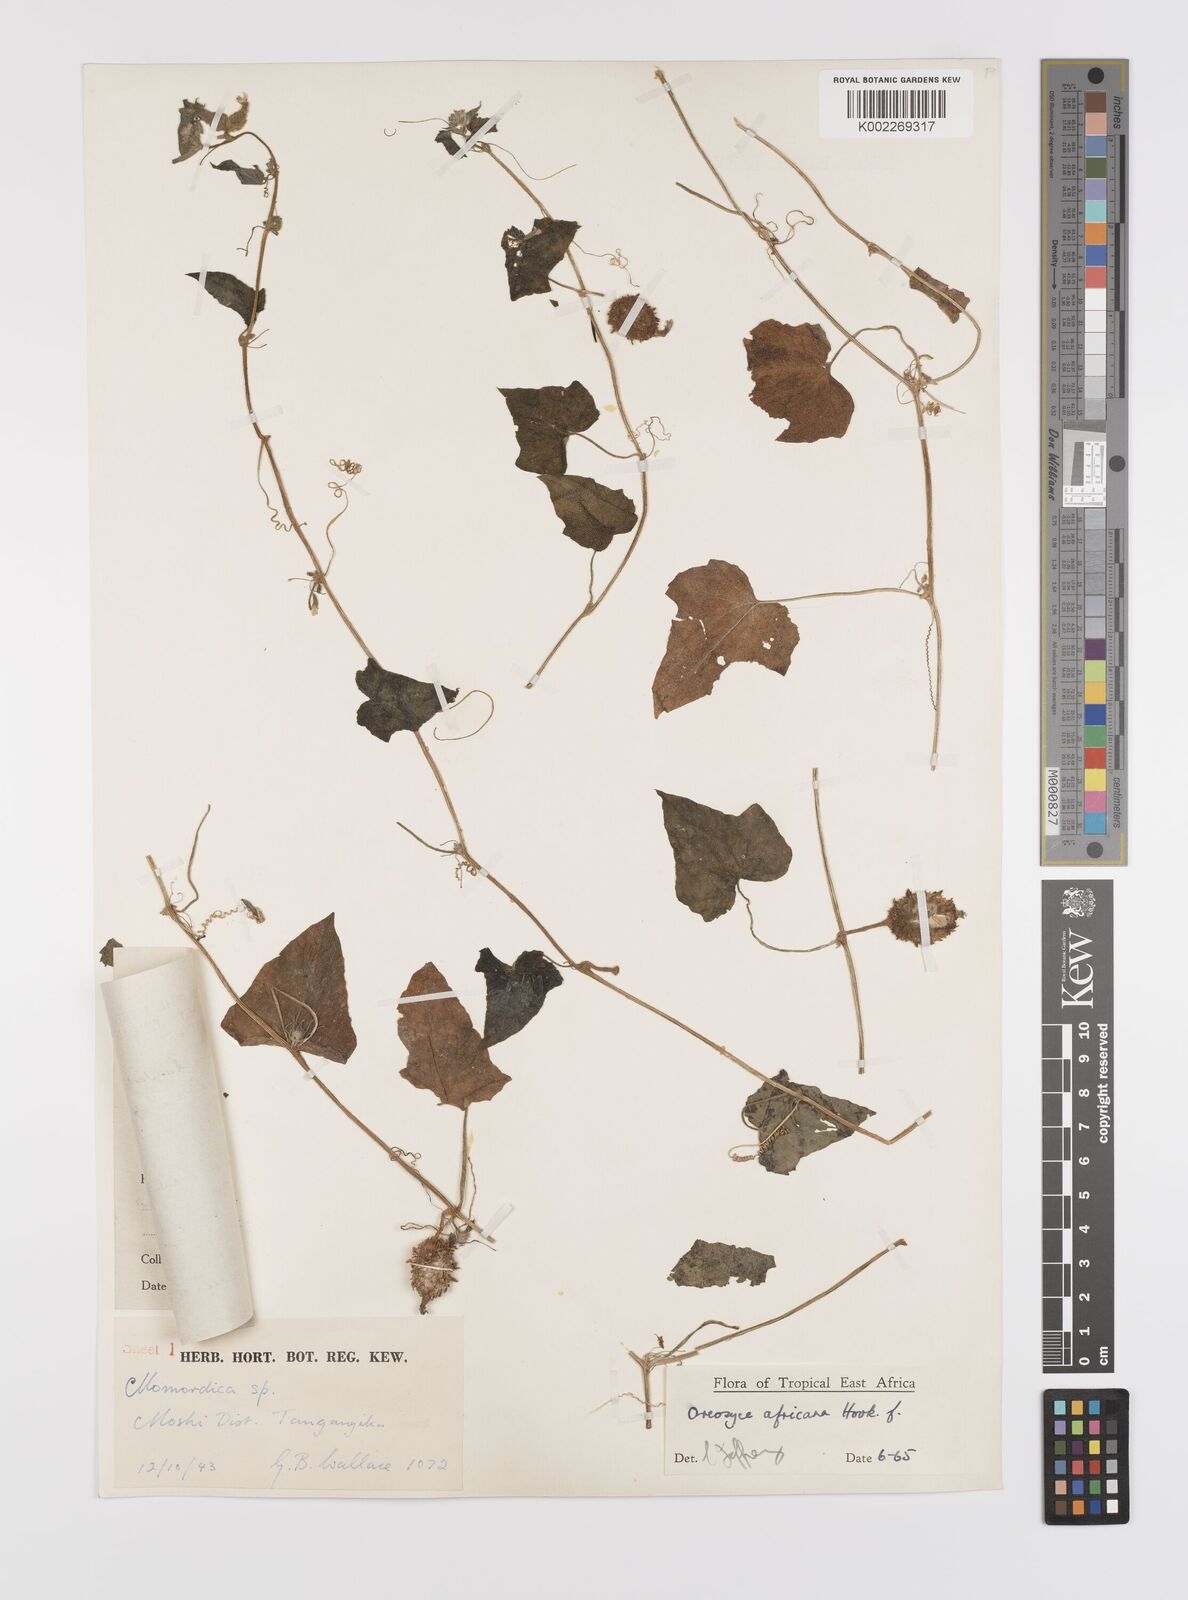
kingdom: Plantae
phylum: Tracheophyta
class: Magnoliopsida
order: Cucurbitales
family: Cucurbitaceae
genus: Cucumis
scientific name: Cucumis oreosyce
